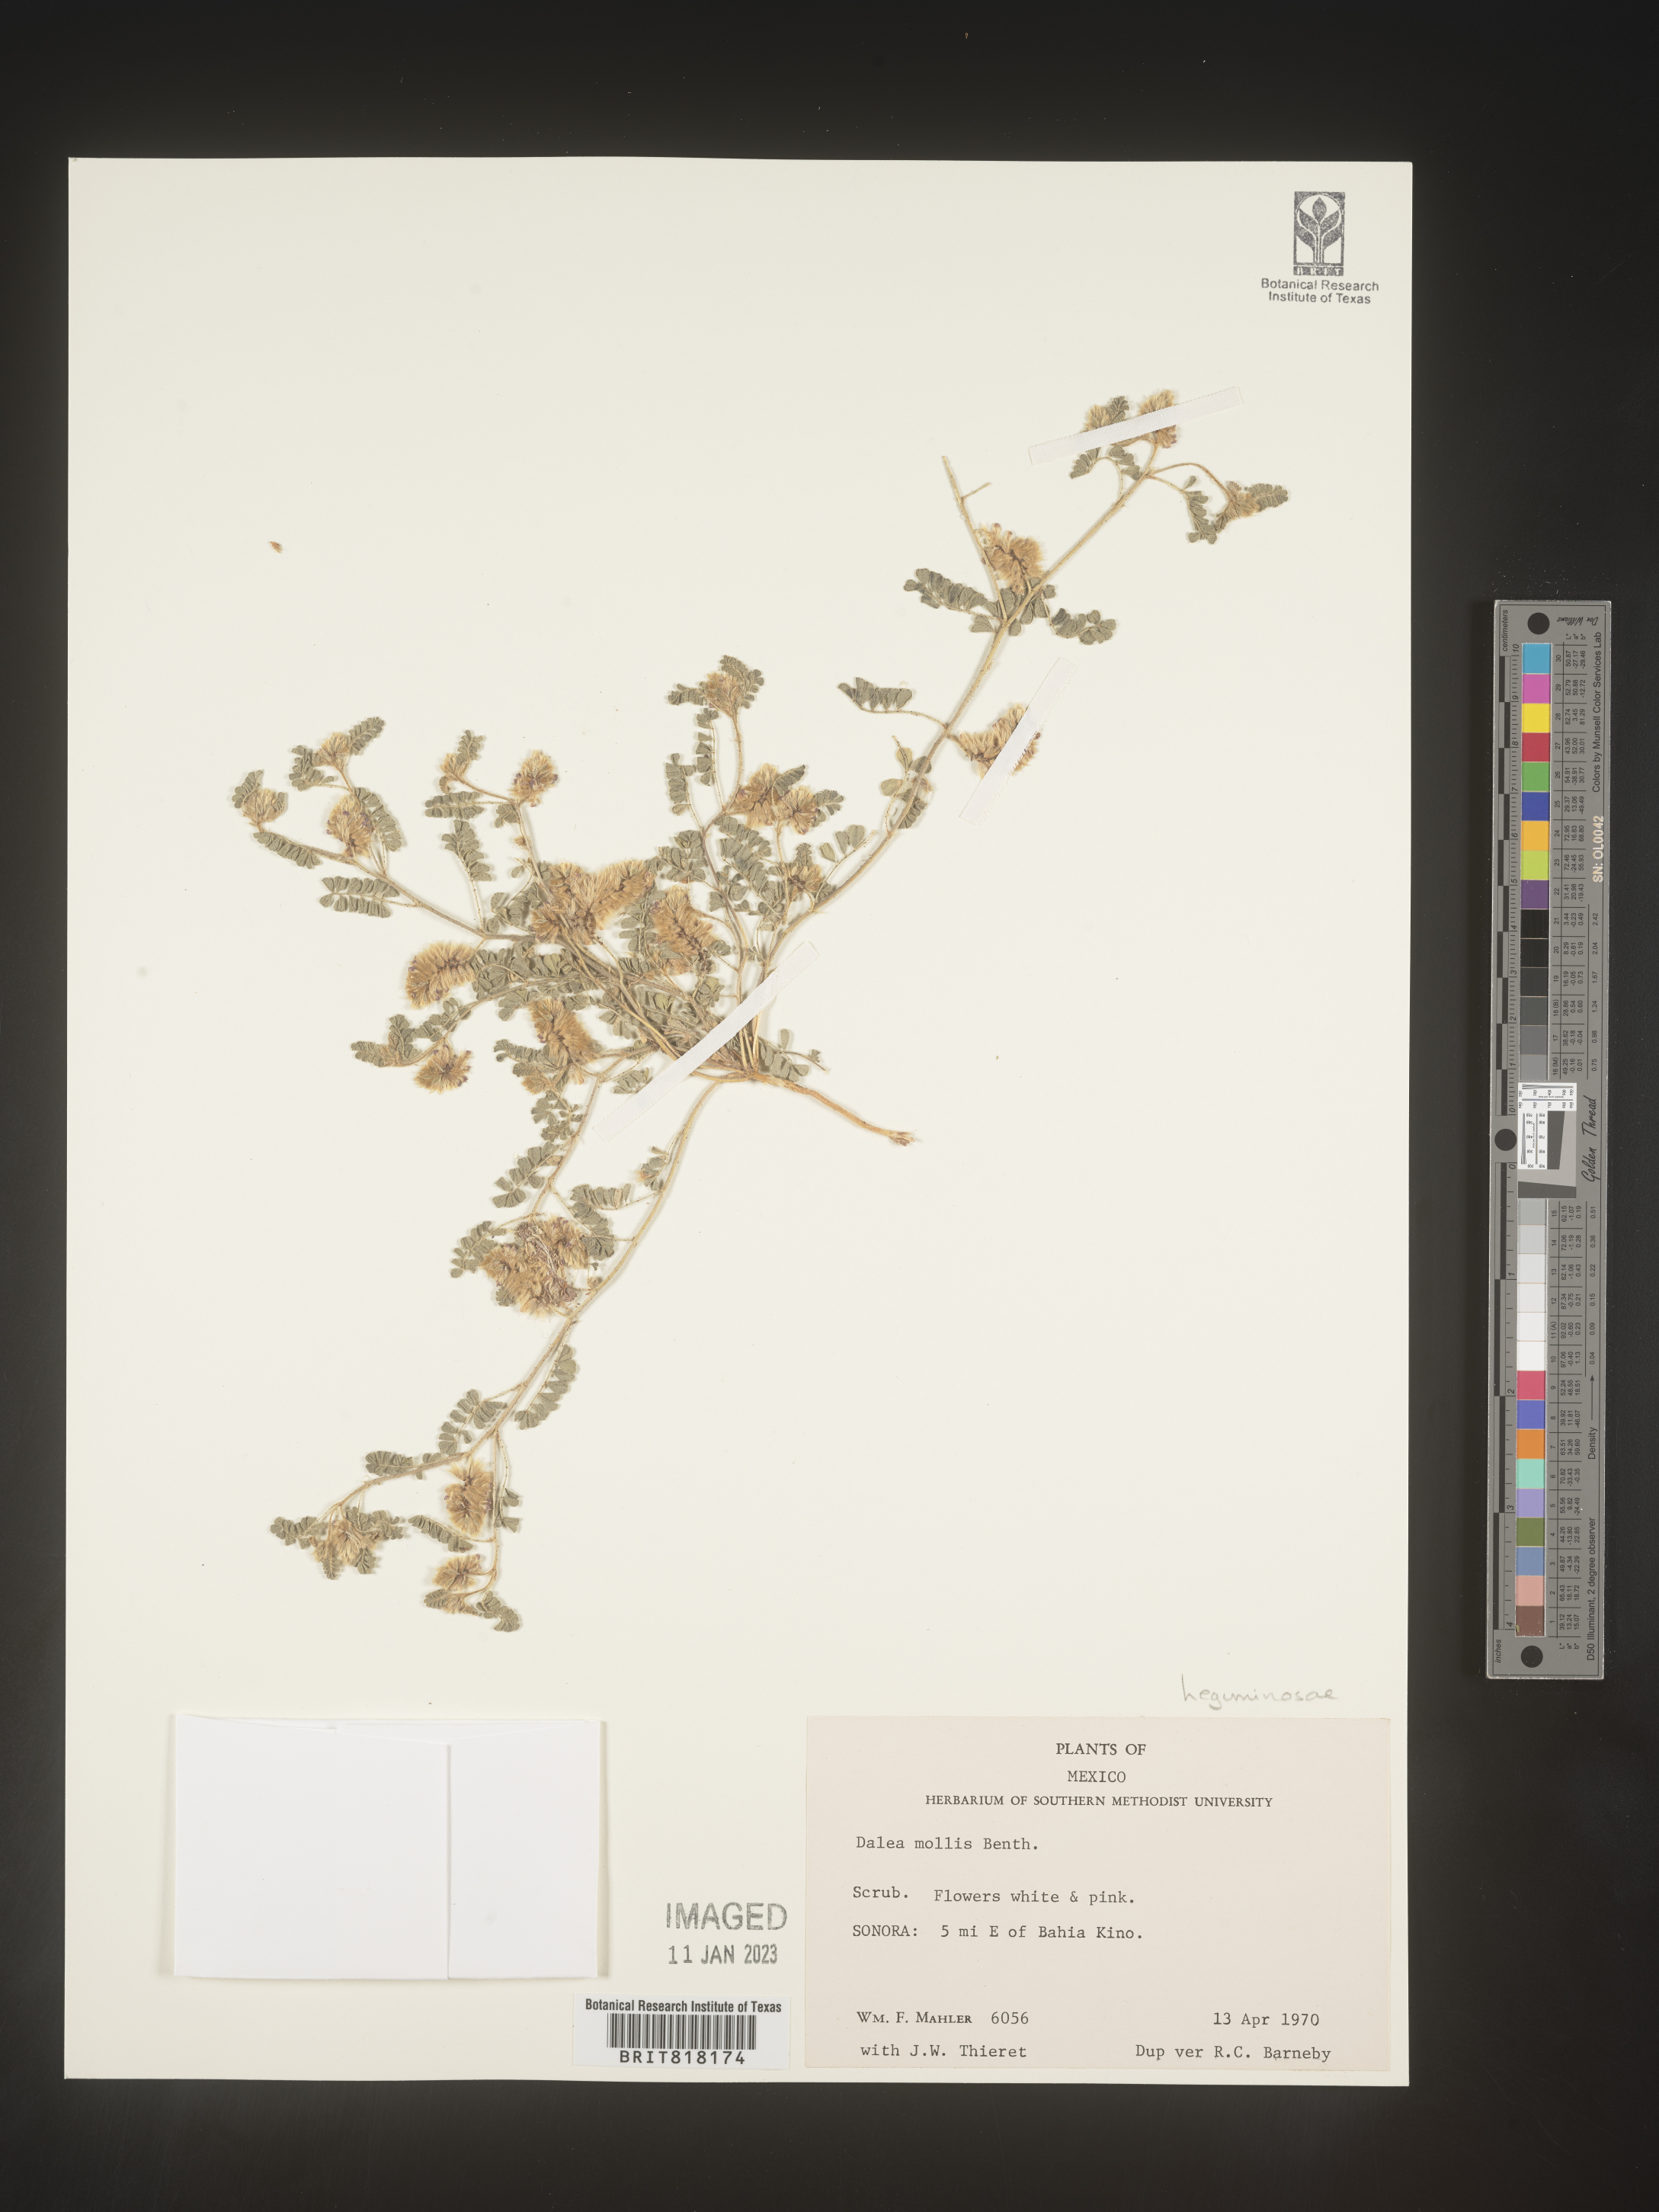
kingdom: Plantae
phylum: Tracheophyta
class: Magnoliopsida
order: Fabales
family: Fabaceae
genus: Dalea
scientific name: Dalea
